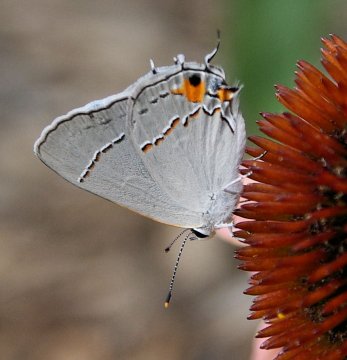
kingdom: Animalia
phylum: Arthropoda
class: Insecta
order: Lepidoptera
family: Lycaenidae
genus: Strymon
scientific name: Strymon melinus
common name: Gray Hairstreak
